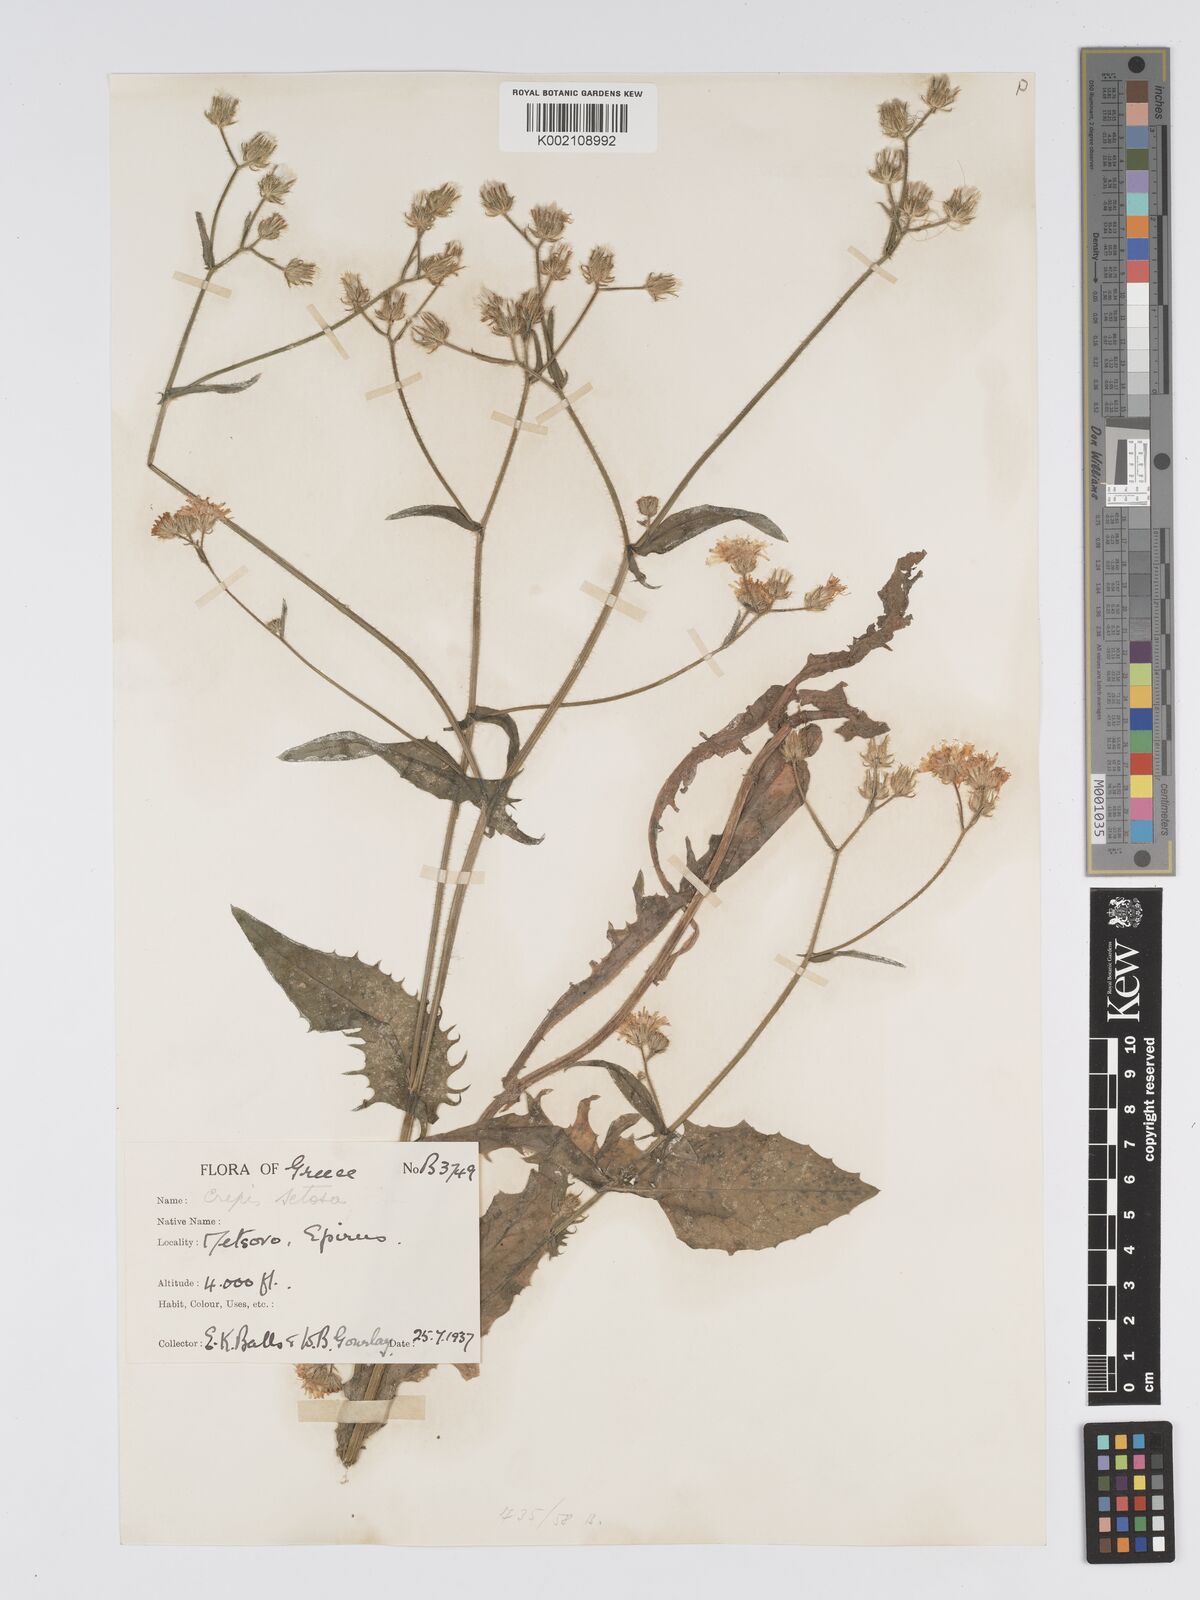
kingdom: Plantae
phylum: Tracheophyta
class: Magnoliopsida
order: Asterales
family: Asteraceae
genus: Crepis
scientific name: Crepis setosa
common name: Bristly hawk's-beard
